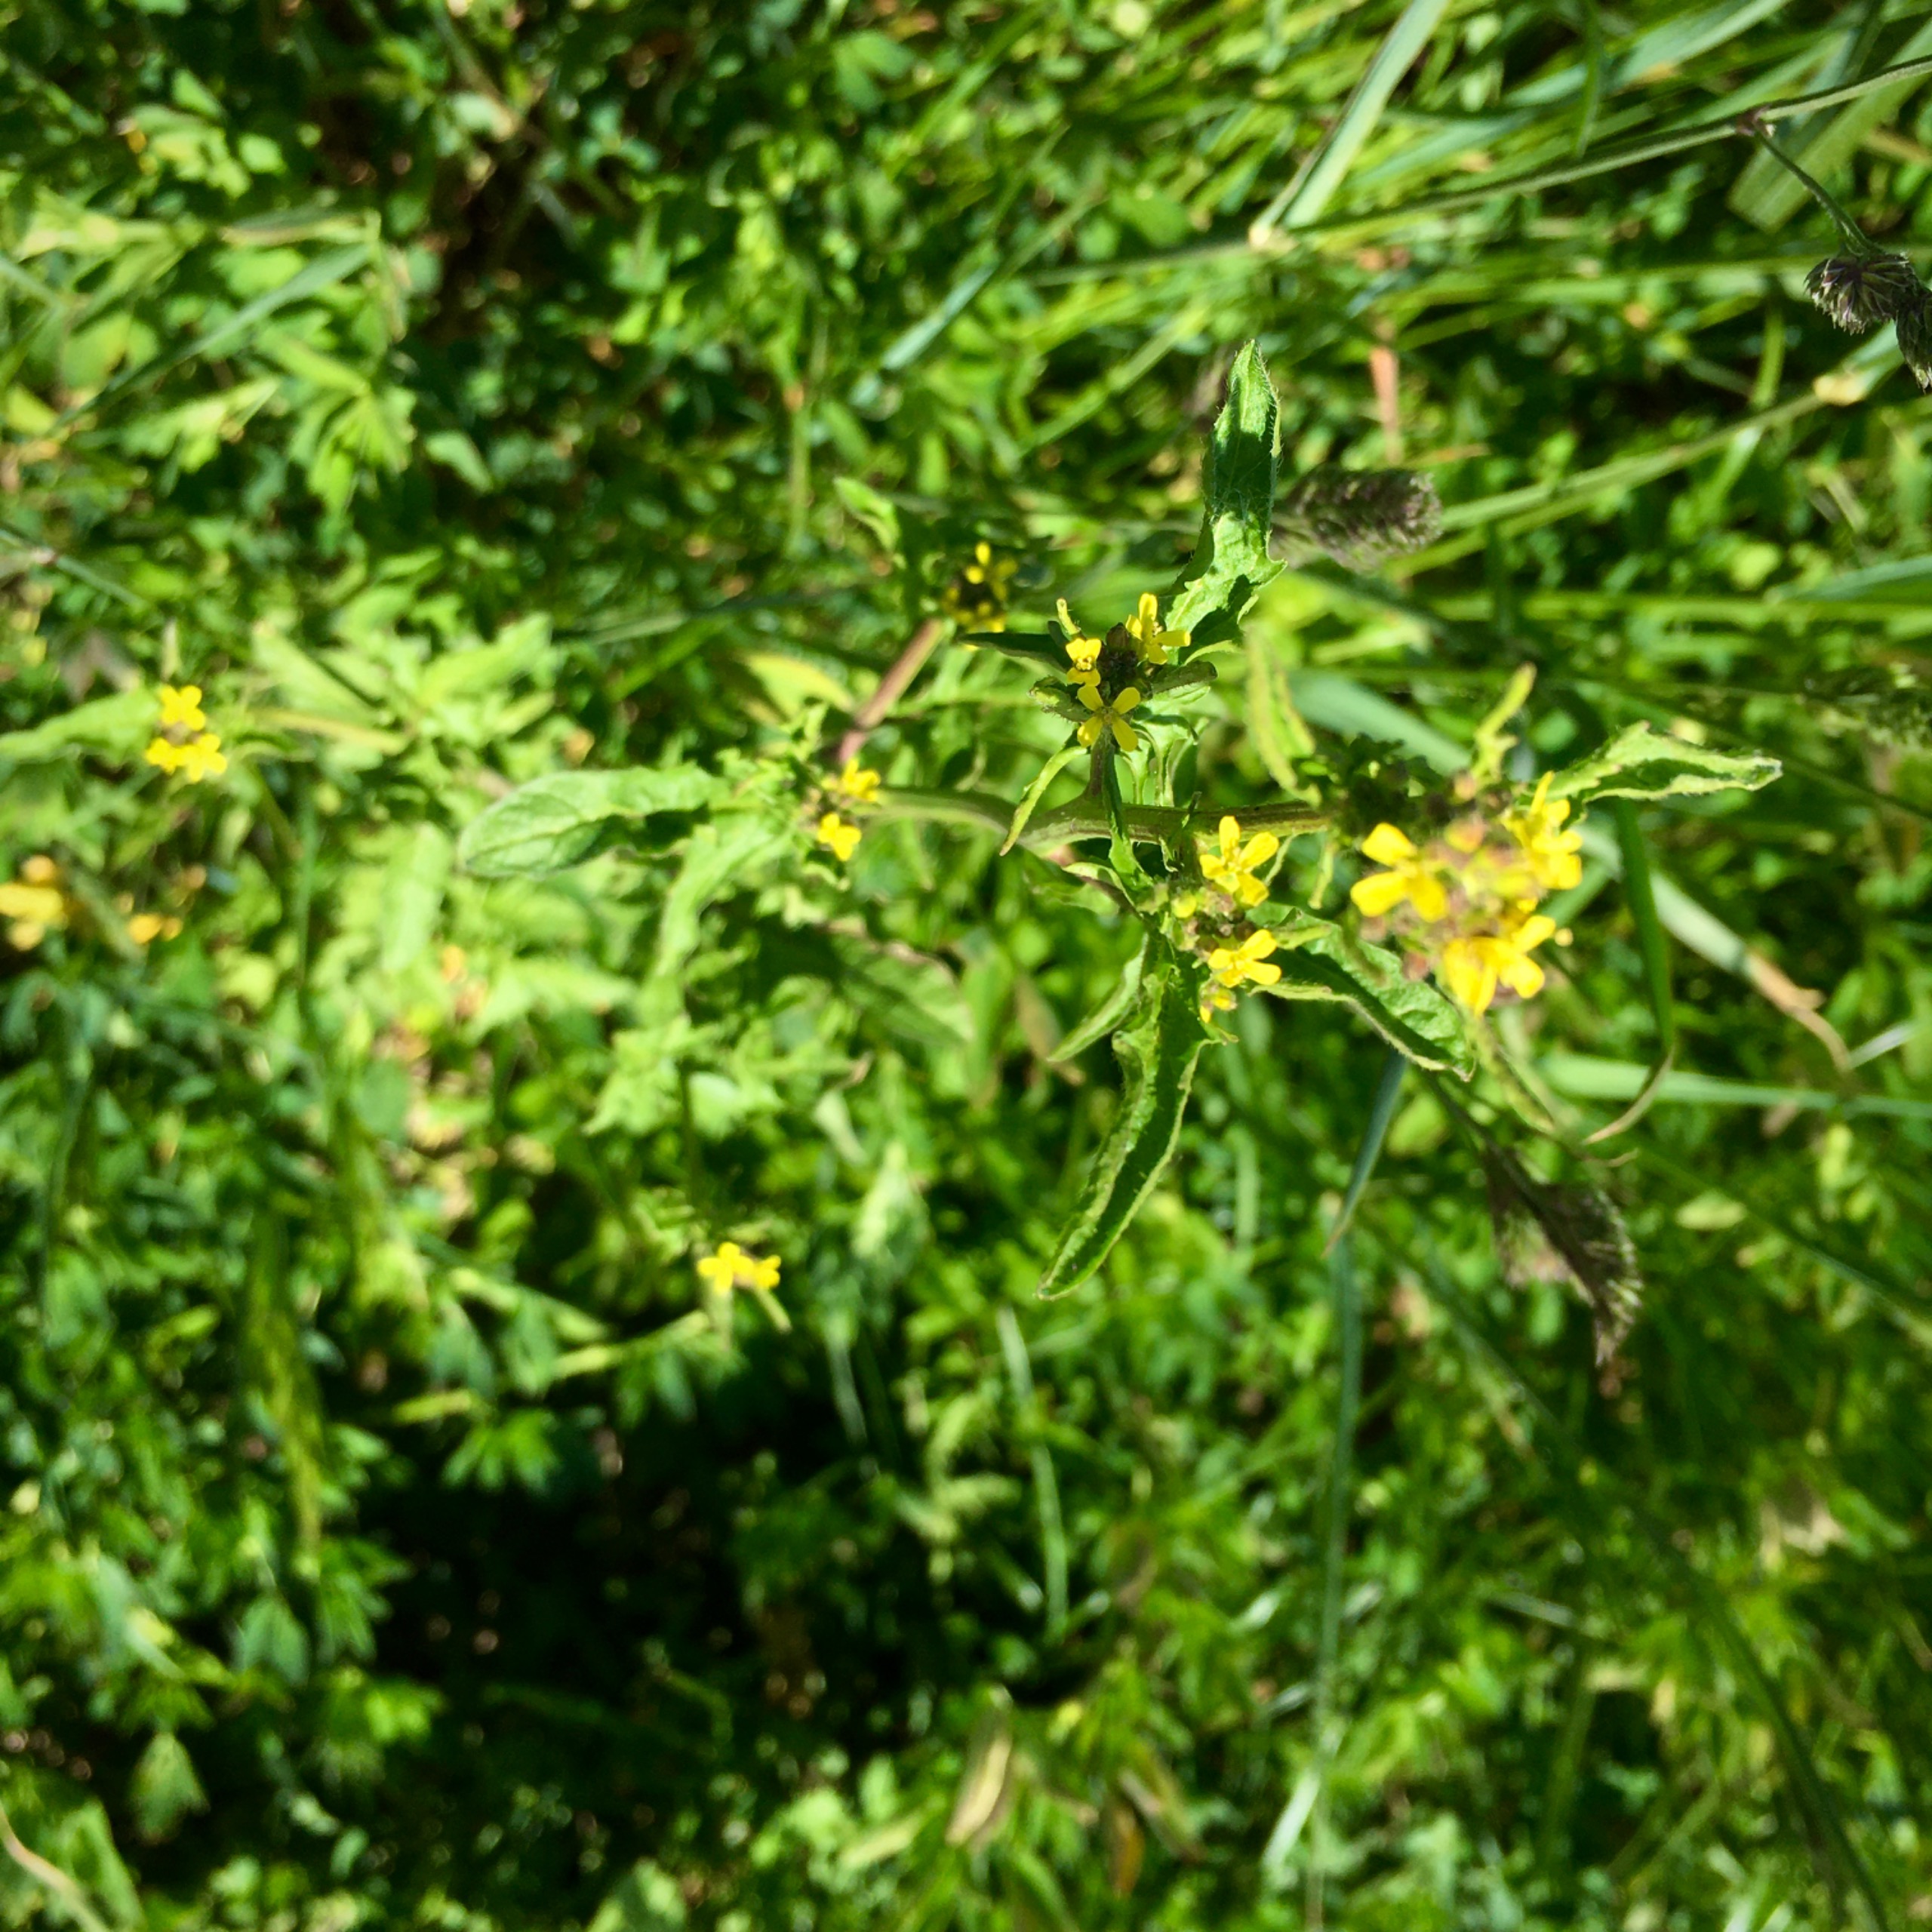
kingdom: Plantae
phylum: Tracheophyta
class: Magnoliopsida
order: Brassicales
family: Brassicaceae
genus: Sisymbrium
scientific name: Sisymbrium officinale
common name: Rank vejsennep
